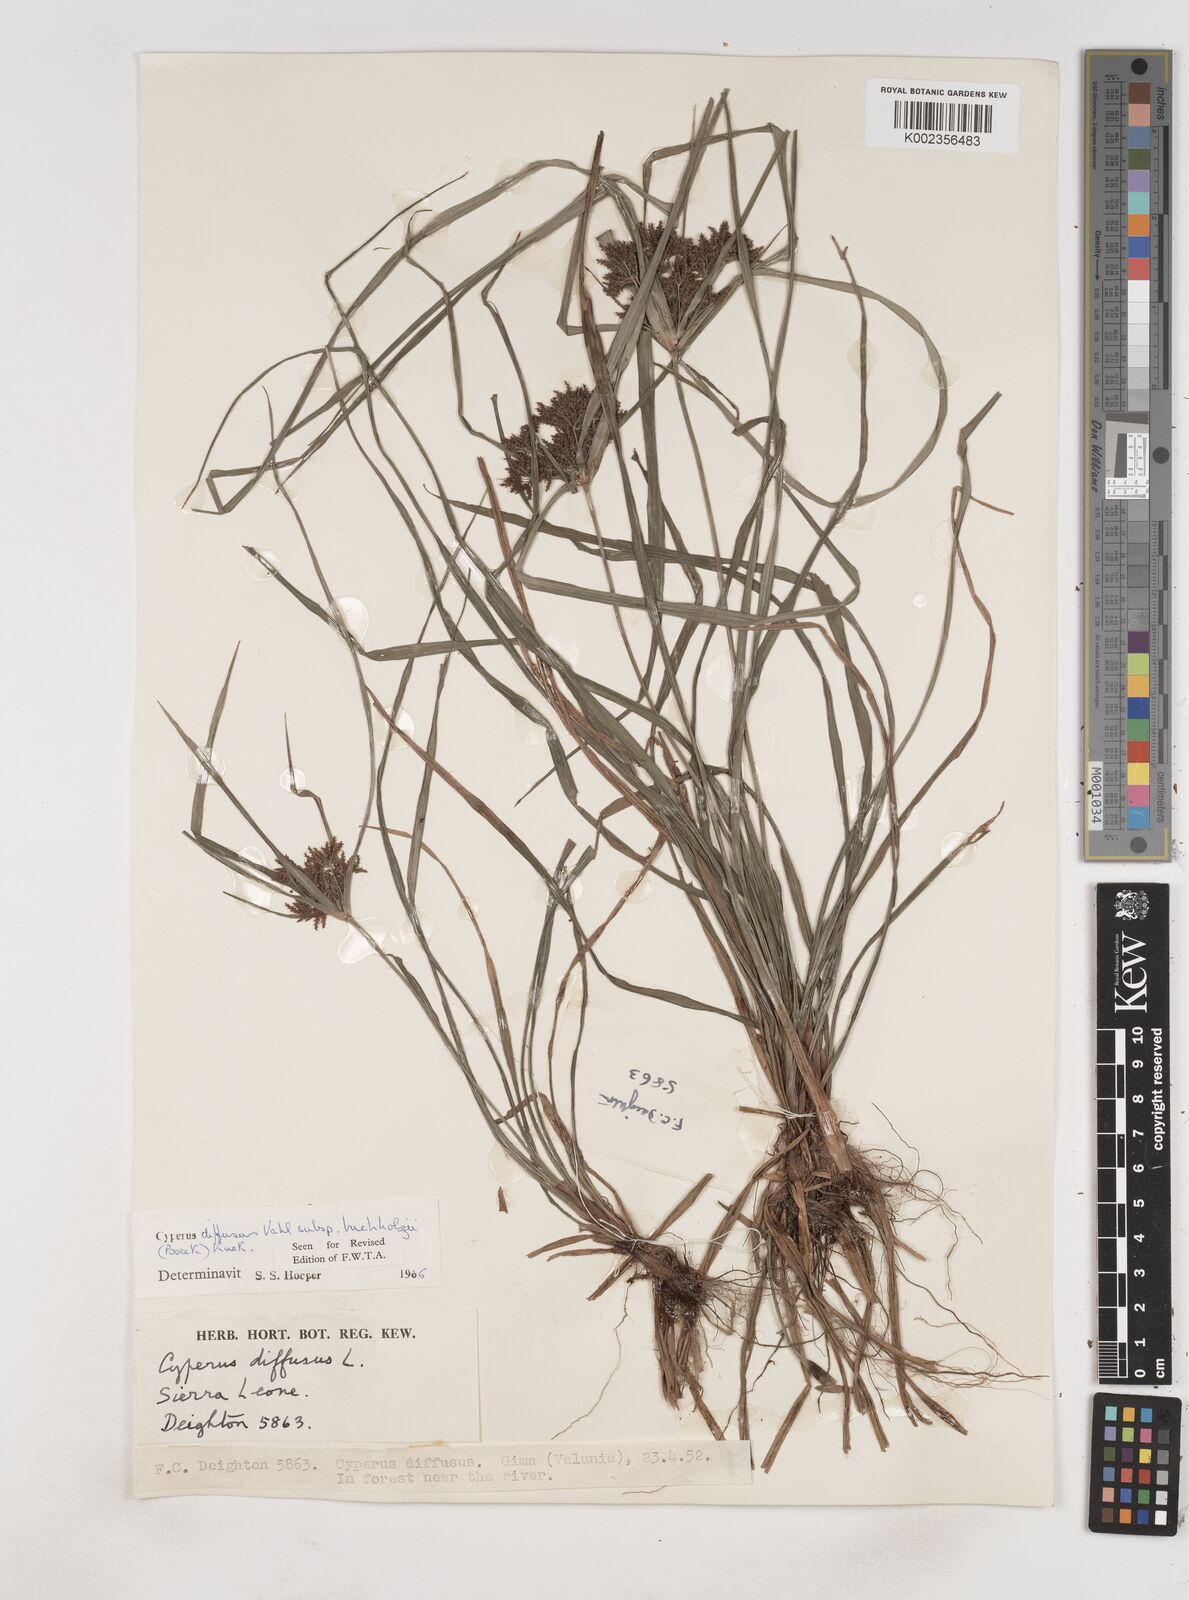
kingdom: Plantae
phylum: Tracheophyta
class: Liliopsida
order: Poales
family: Cyperaceae
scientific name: Cyperaceae
